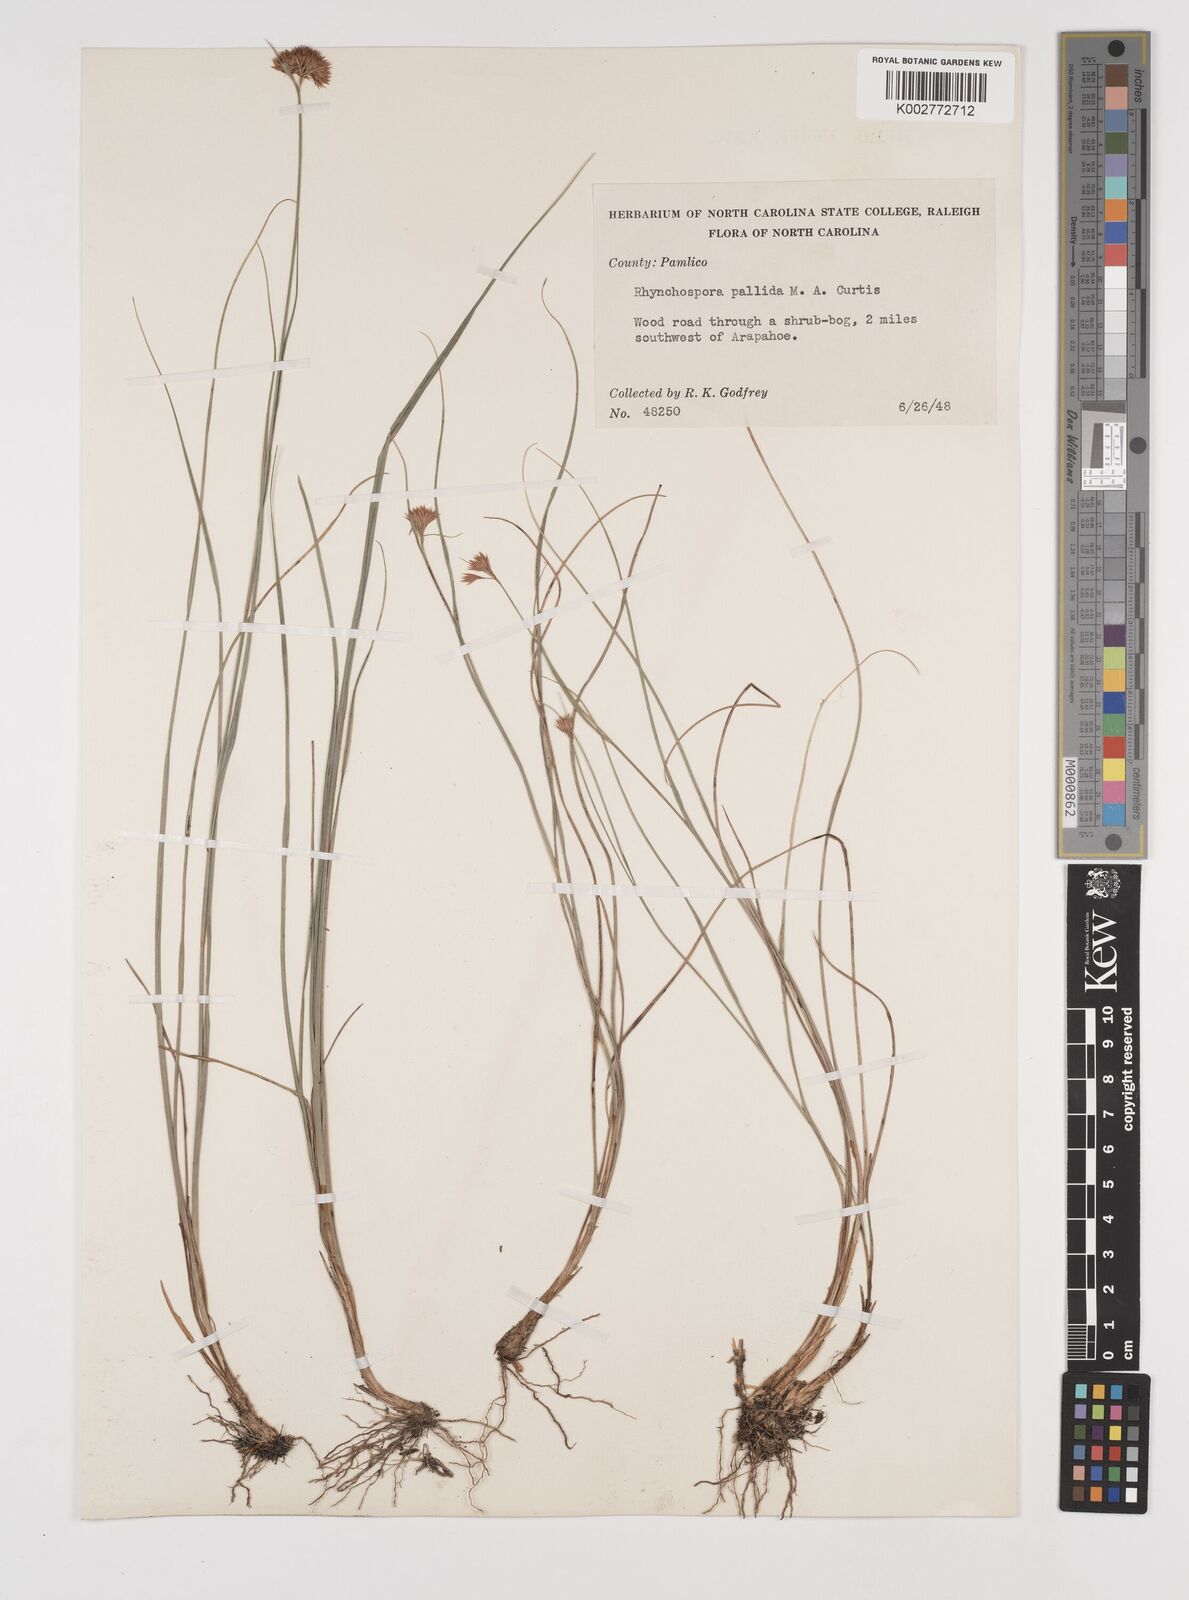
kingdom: Plantae
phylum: Tracheophyta
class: Liliopsida
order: Poales
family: Cyperaceae
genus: Rhynchospora
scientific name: Rhynchospora pallida
